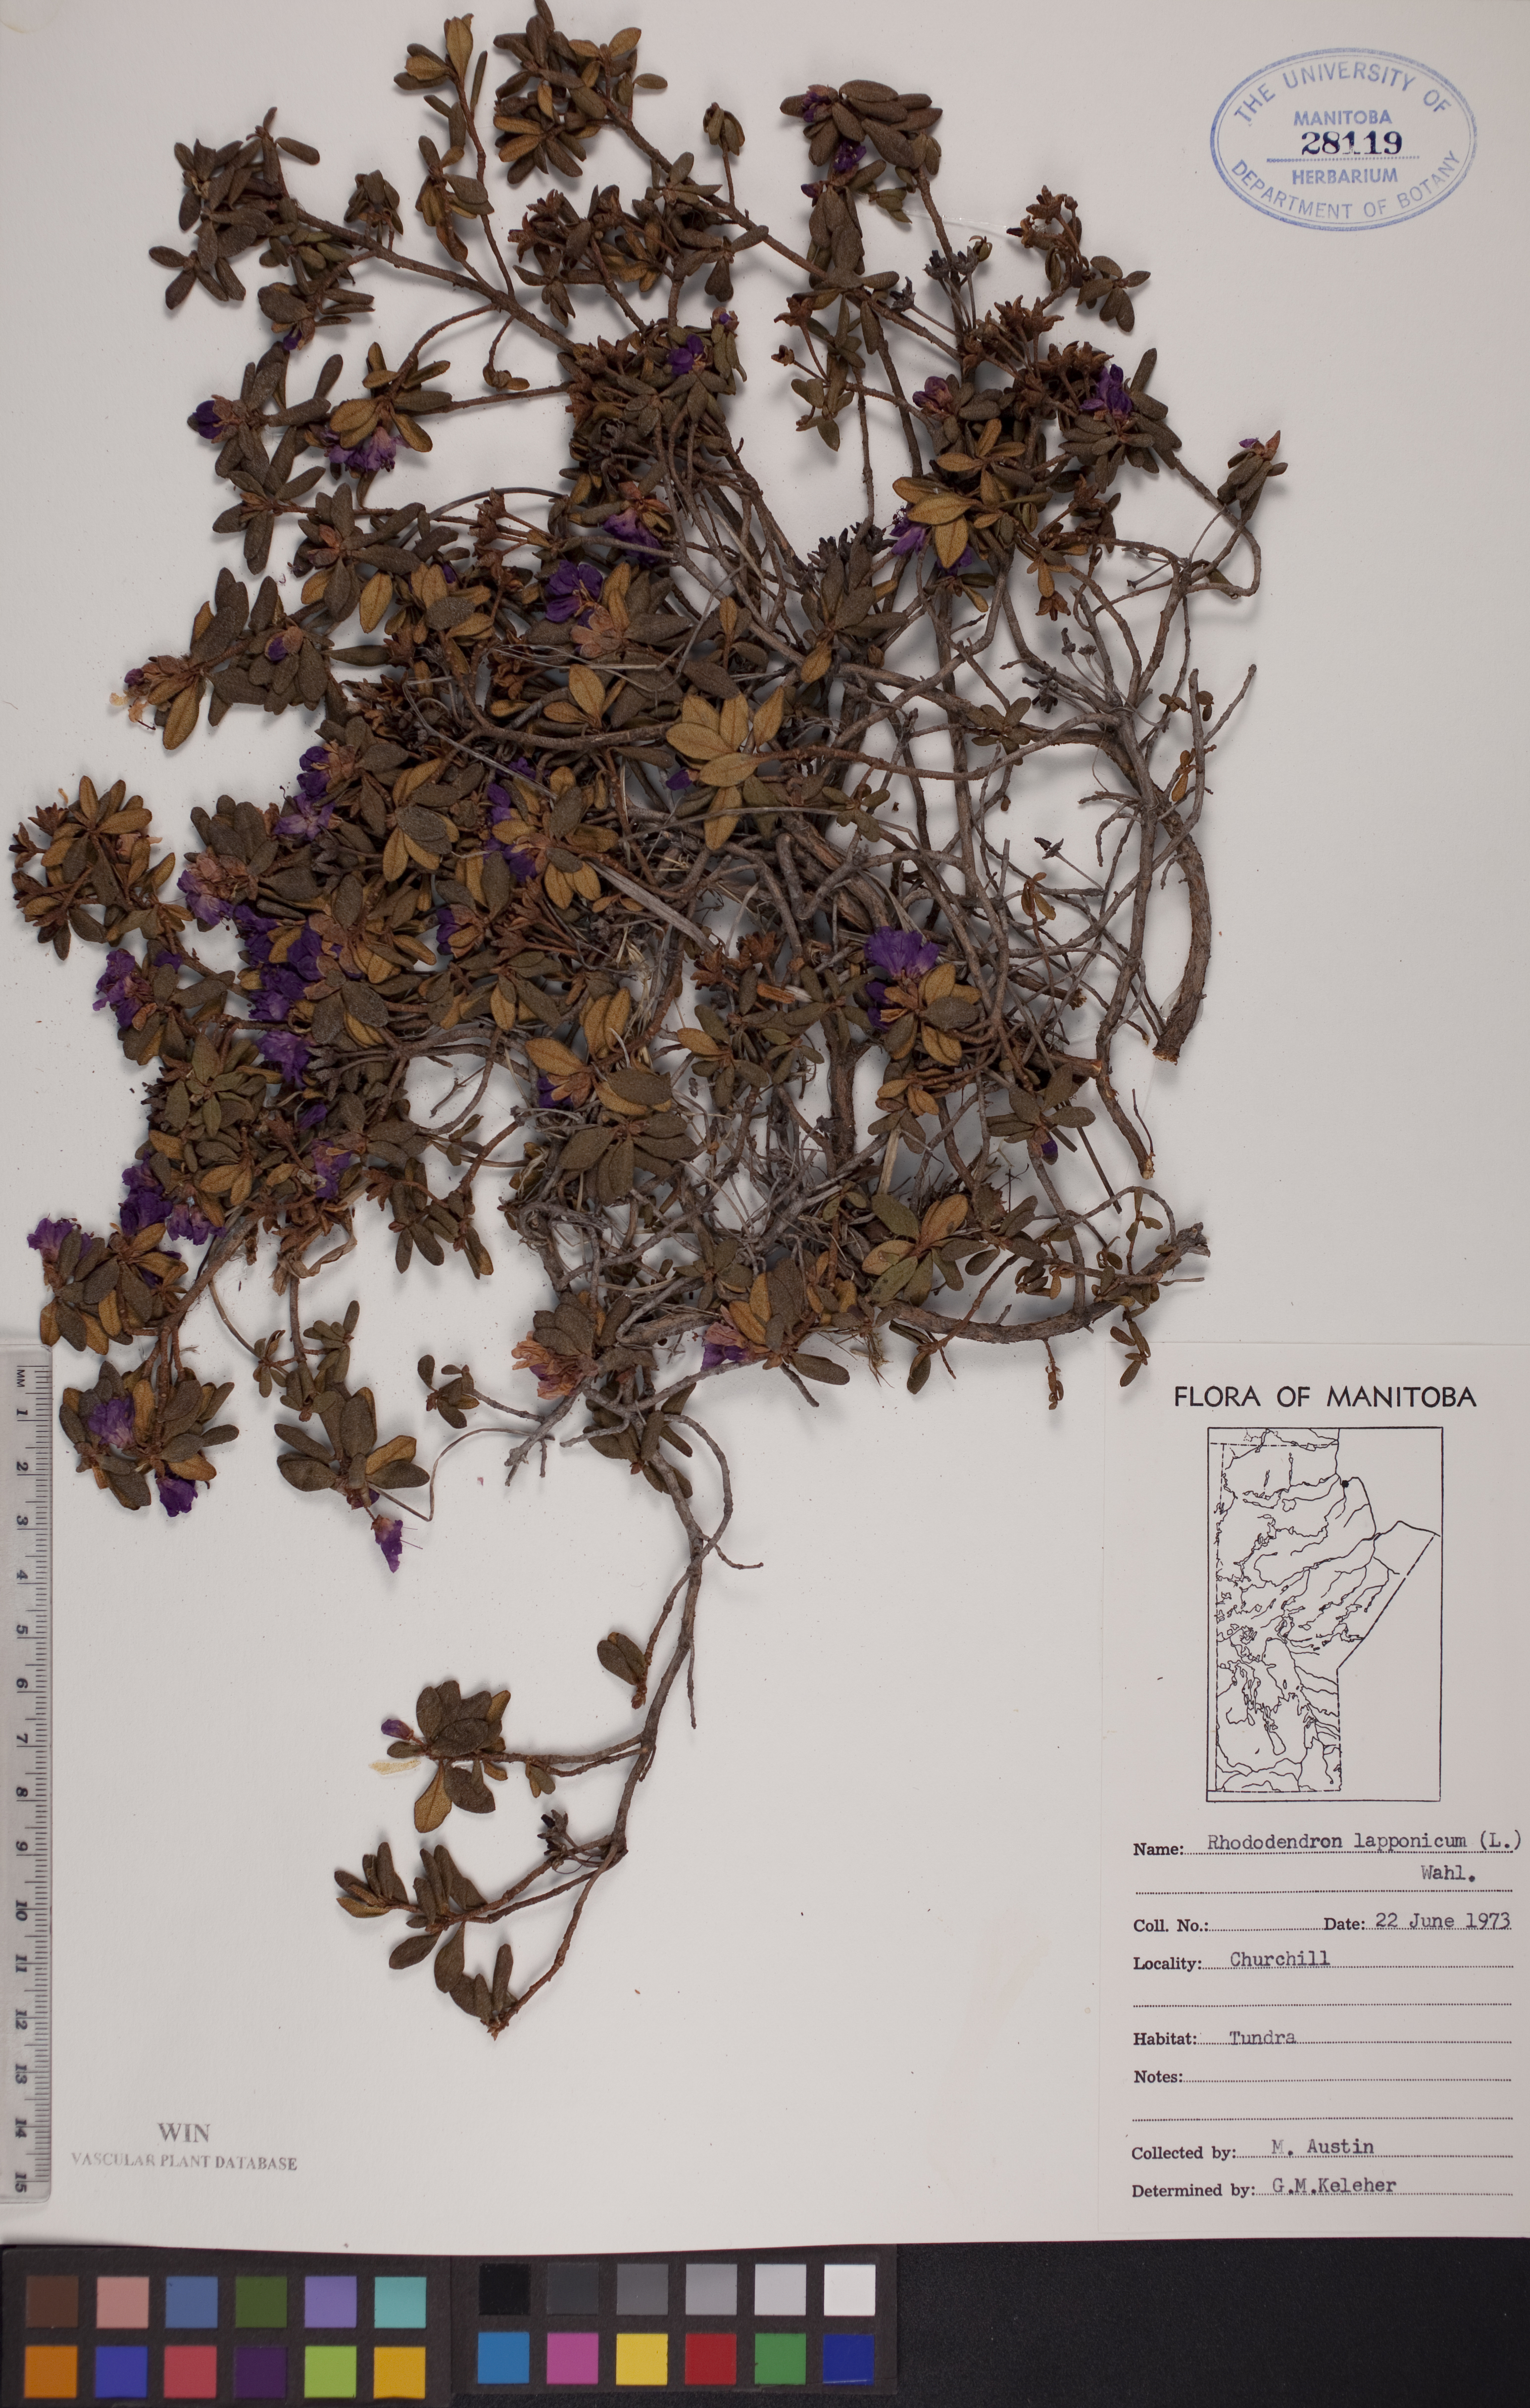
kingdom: Plantae
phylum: Tracheophyta
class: Magnoliopsida
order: Ericales
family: Ericaceae
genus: Rhododendron
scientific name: Rhododendron lapponicum
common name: Lapland rhododendron
